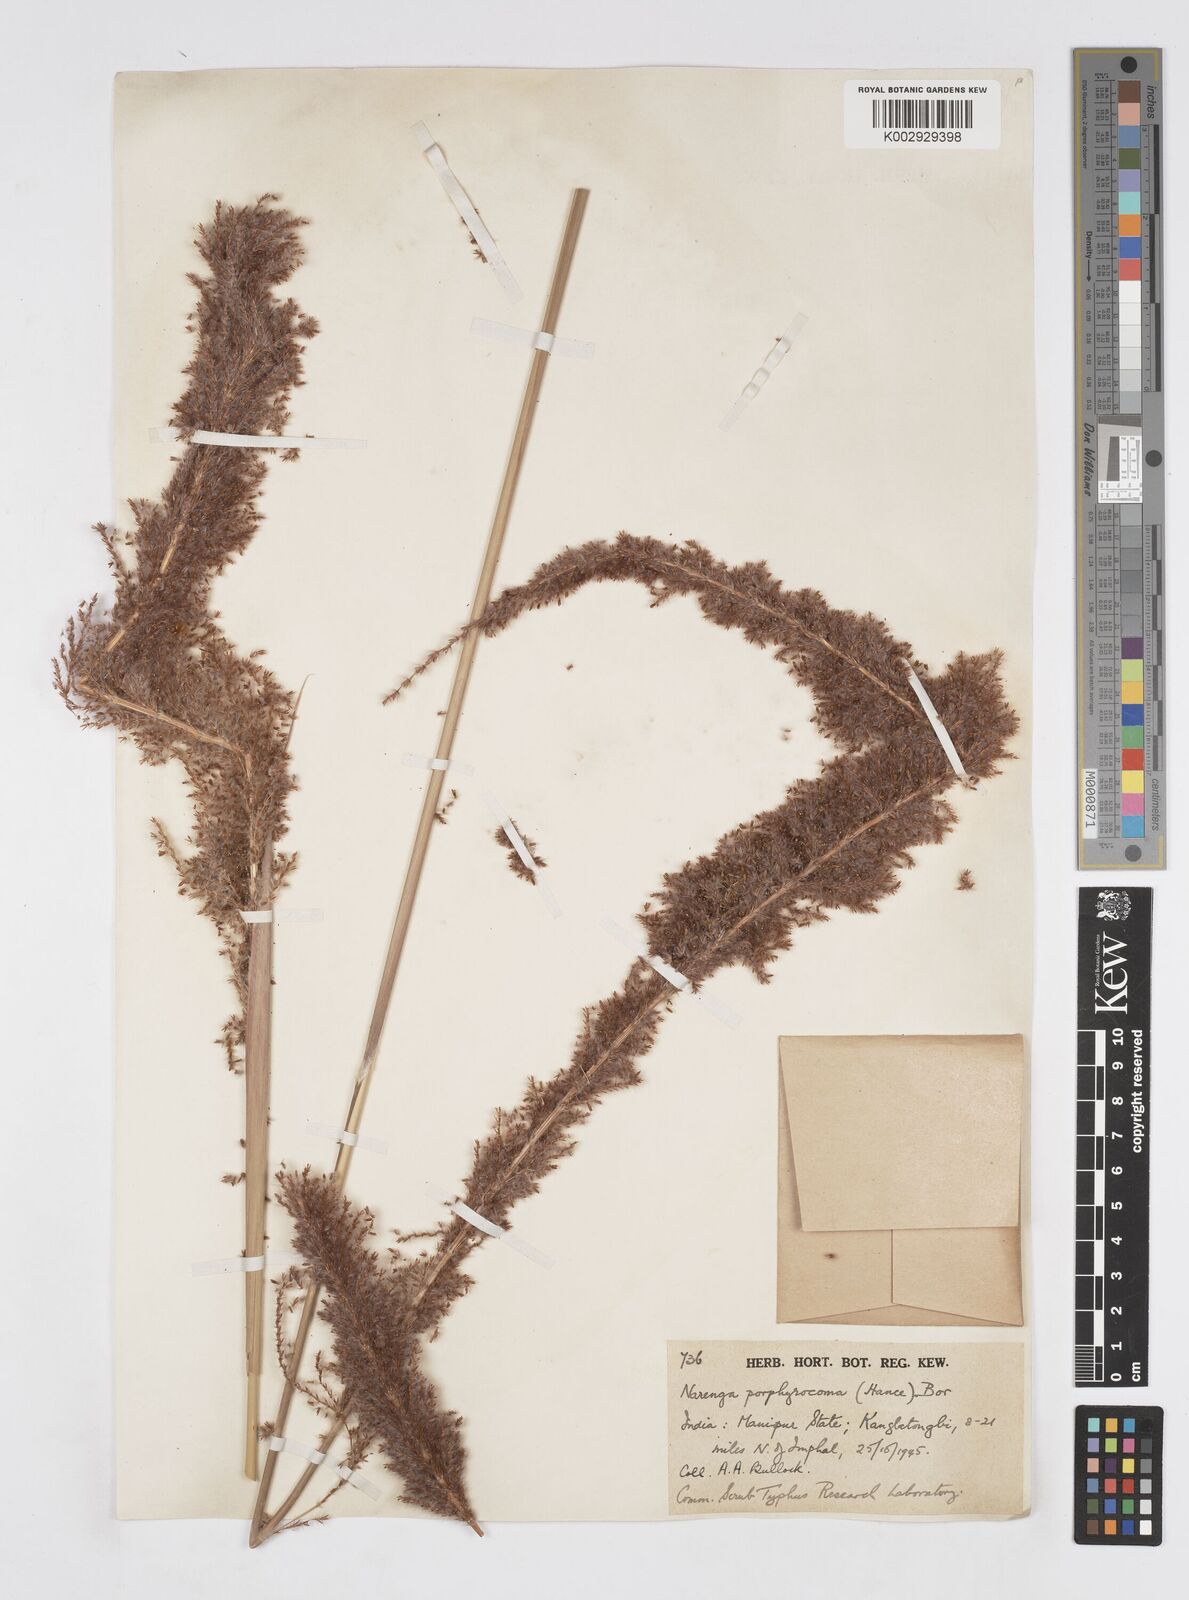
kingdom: Plantae
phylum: Tracheophyta
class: Liliopsida
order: Poales
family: Poaceae
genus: Narenga
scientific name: Narenga porphyrocoma
